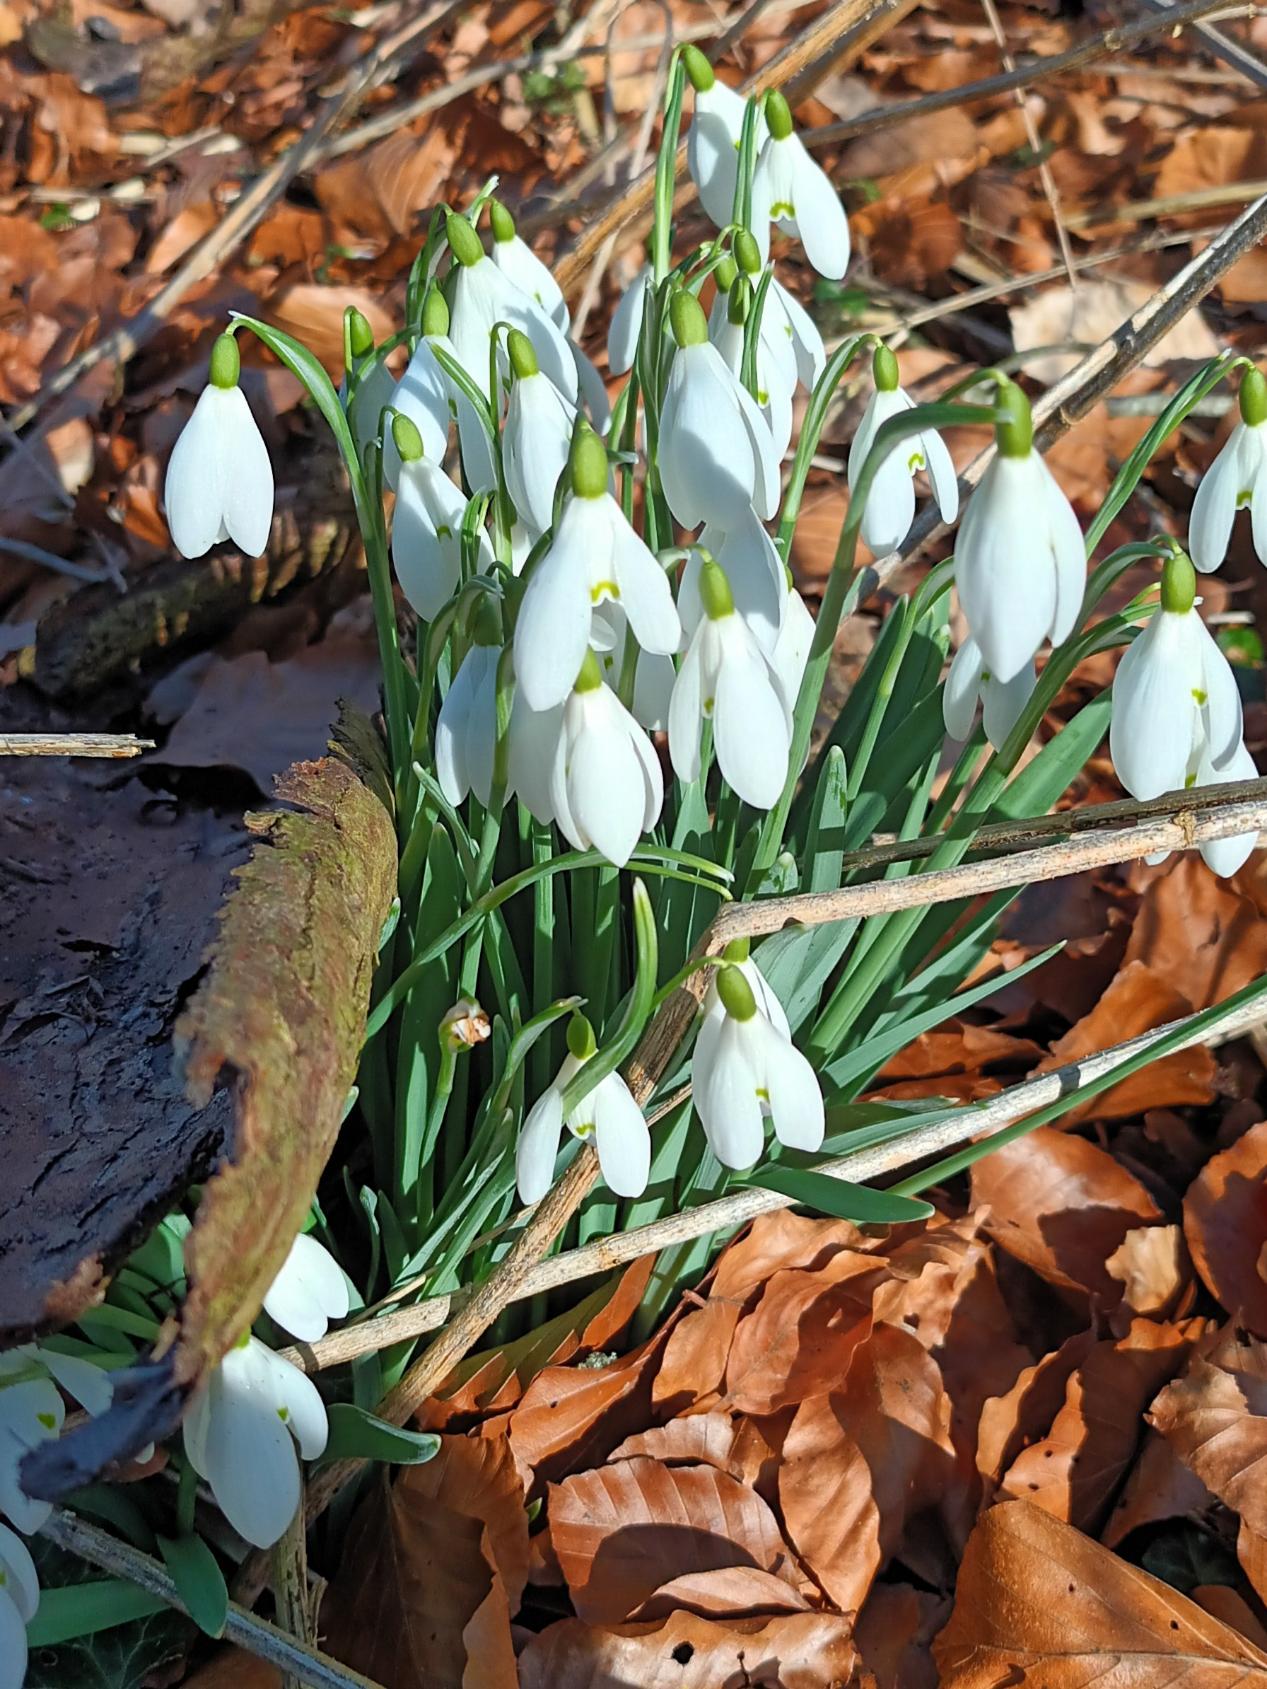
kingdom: Plantae
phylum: Tracheophyta
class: Liliopsida
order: Asparagales
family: Amaryllidaceae
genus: Galanthus
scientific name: Galanthus nivalis
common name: Vintergæk
